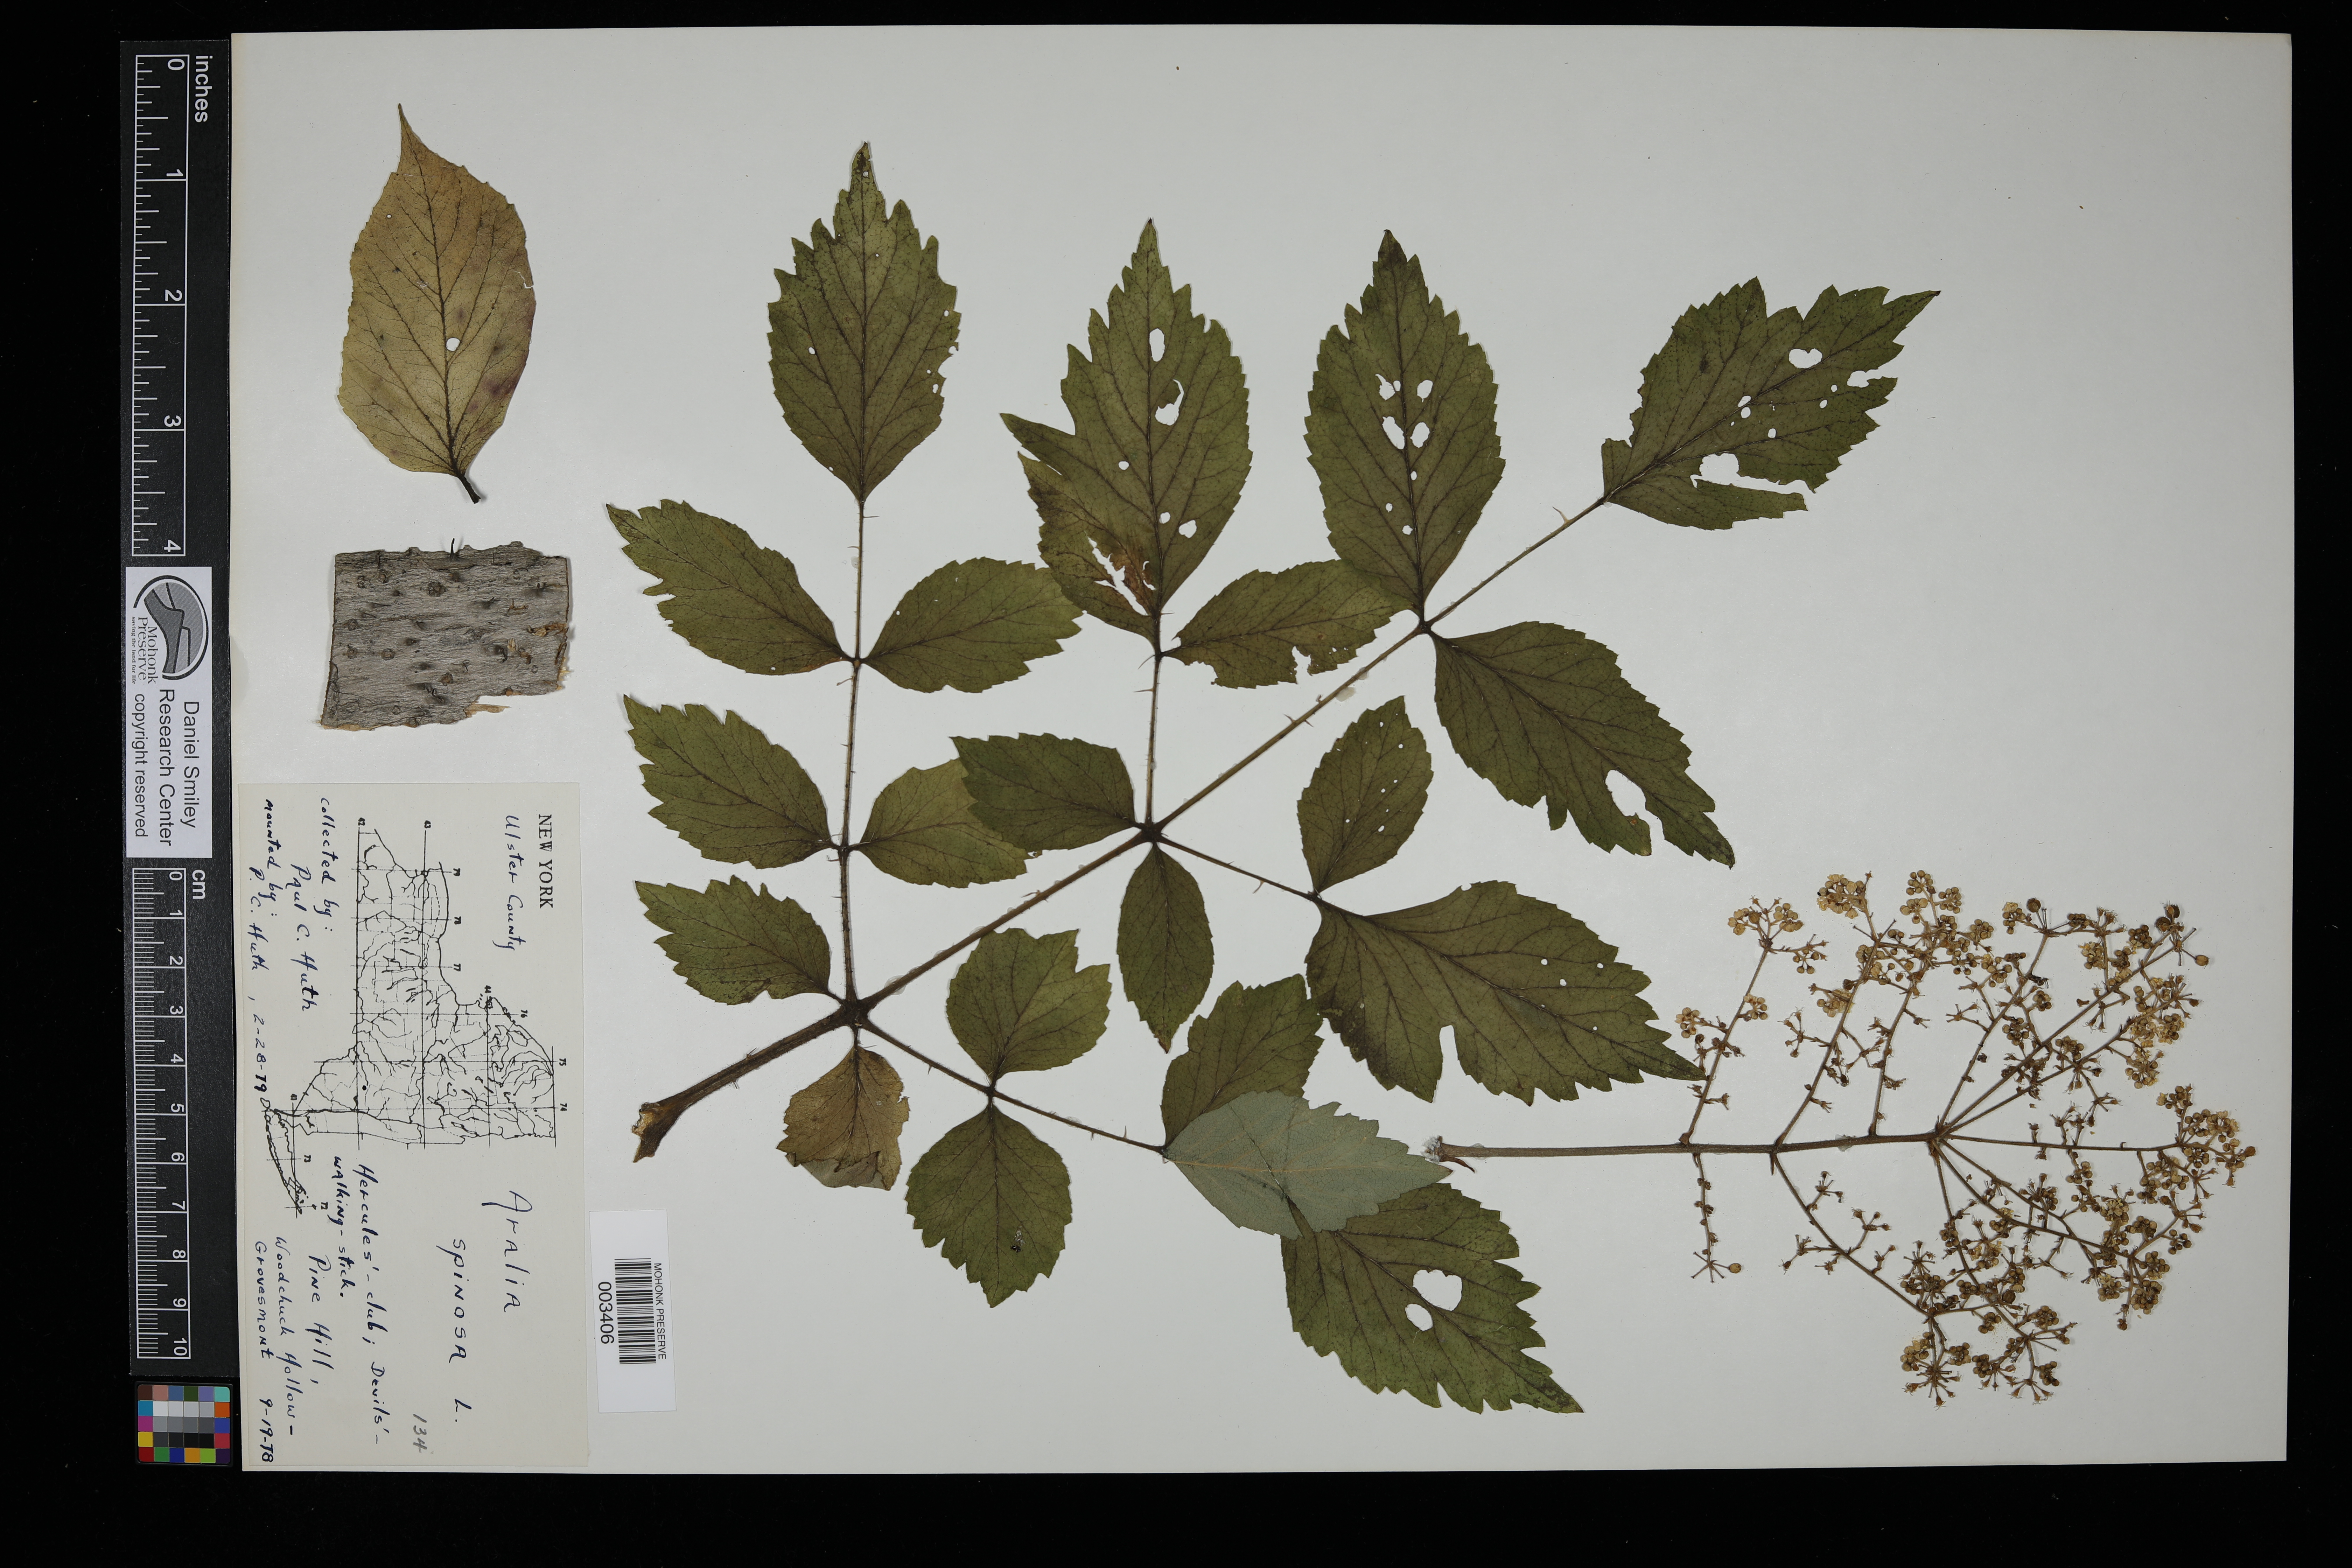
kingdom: Plantae
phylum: Tracheophyta
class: Magnoliopsida
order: Apiales
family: Araliaceae
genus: Aralia
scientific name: Aralia spinosa
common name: Hercules'-club
